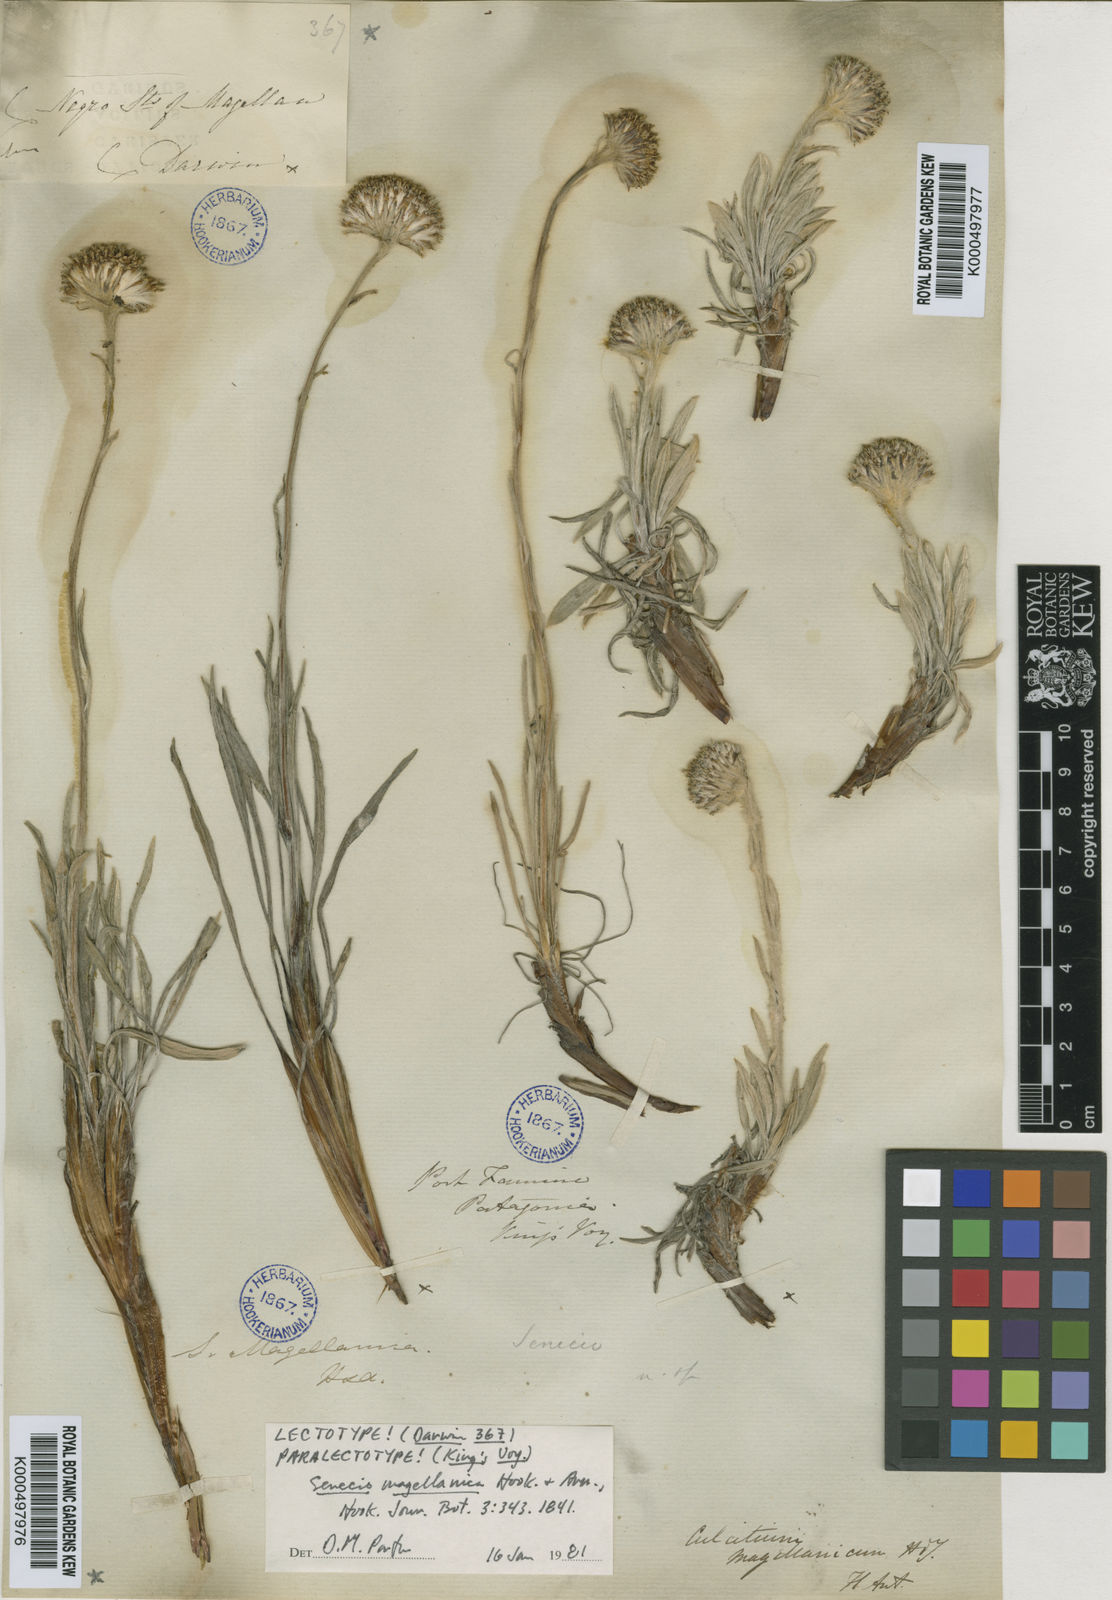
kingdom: Plantae
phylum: Tracheophyta
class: Magnoliopsida
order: Asterales
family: Asteraceae
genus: Senecio
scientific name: Senecio tunicatus
